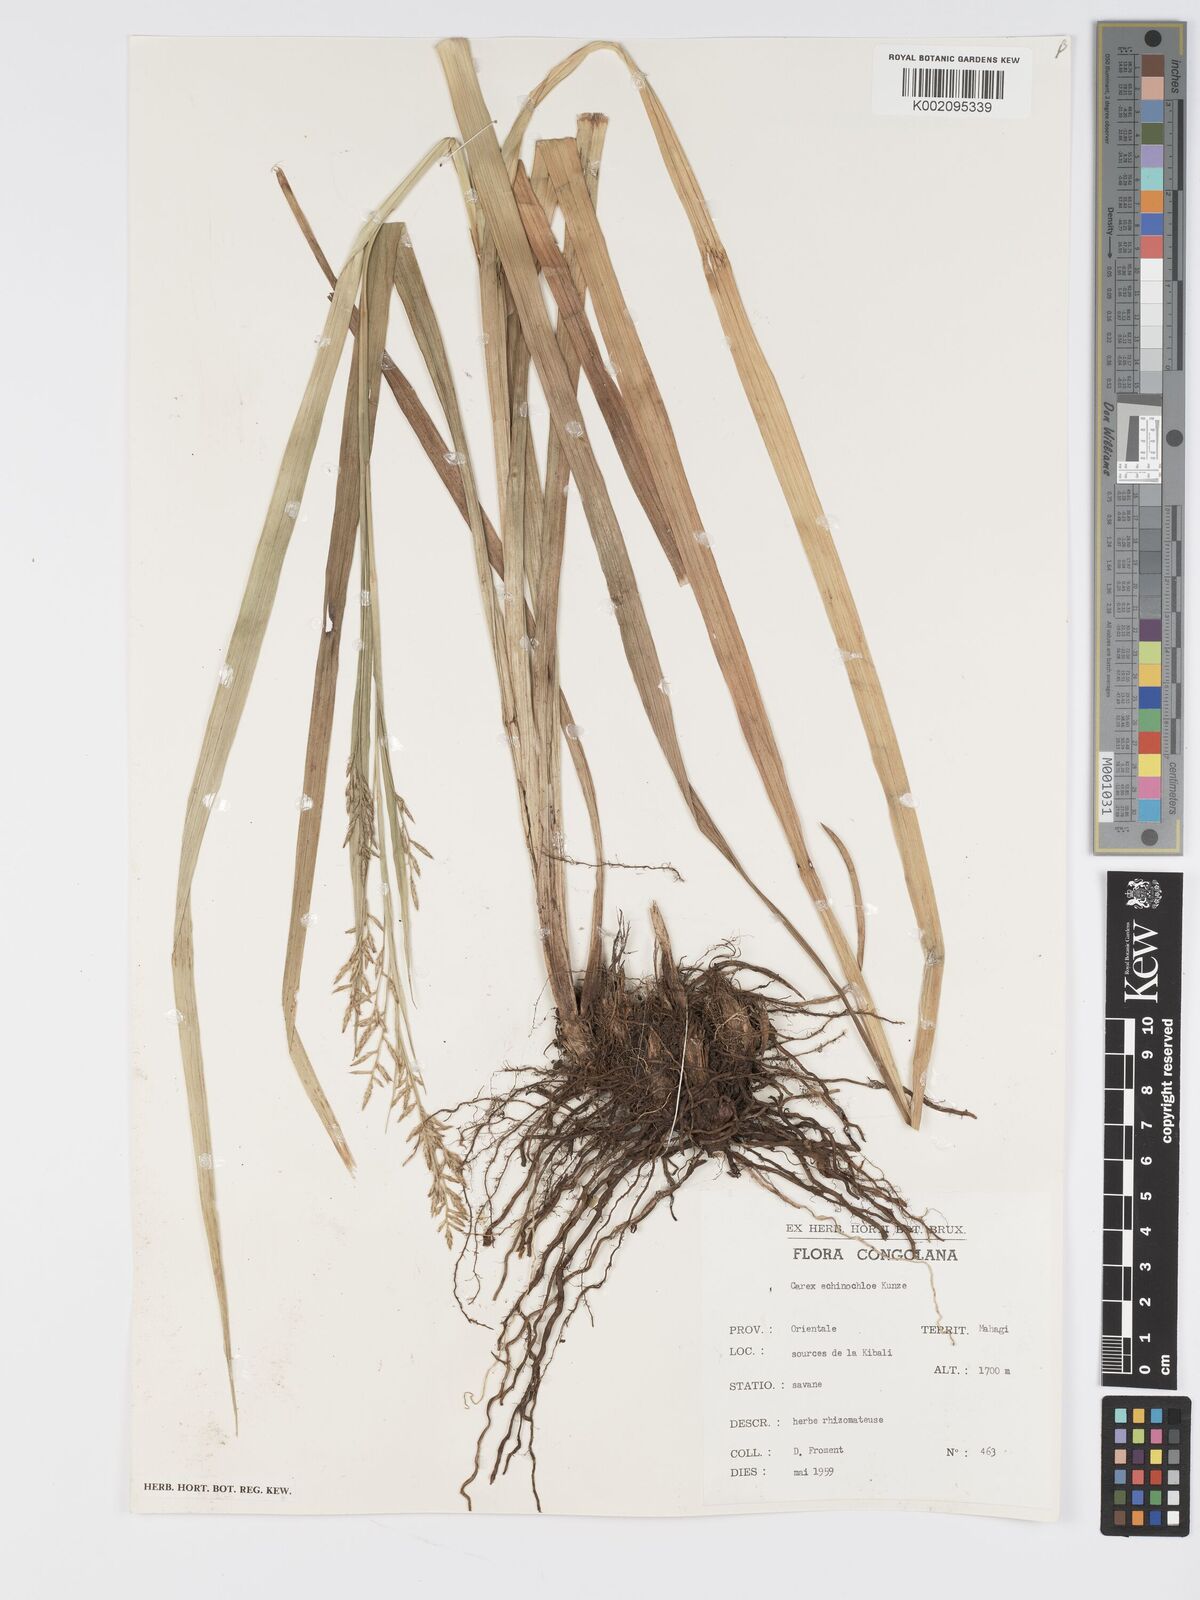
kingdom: Plantae
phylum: Tracheophyta
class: Liliopsida
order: Poales
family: Cyperaceae
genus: Carex
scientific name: Carex echinochloe
